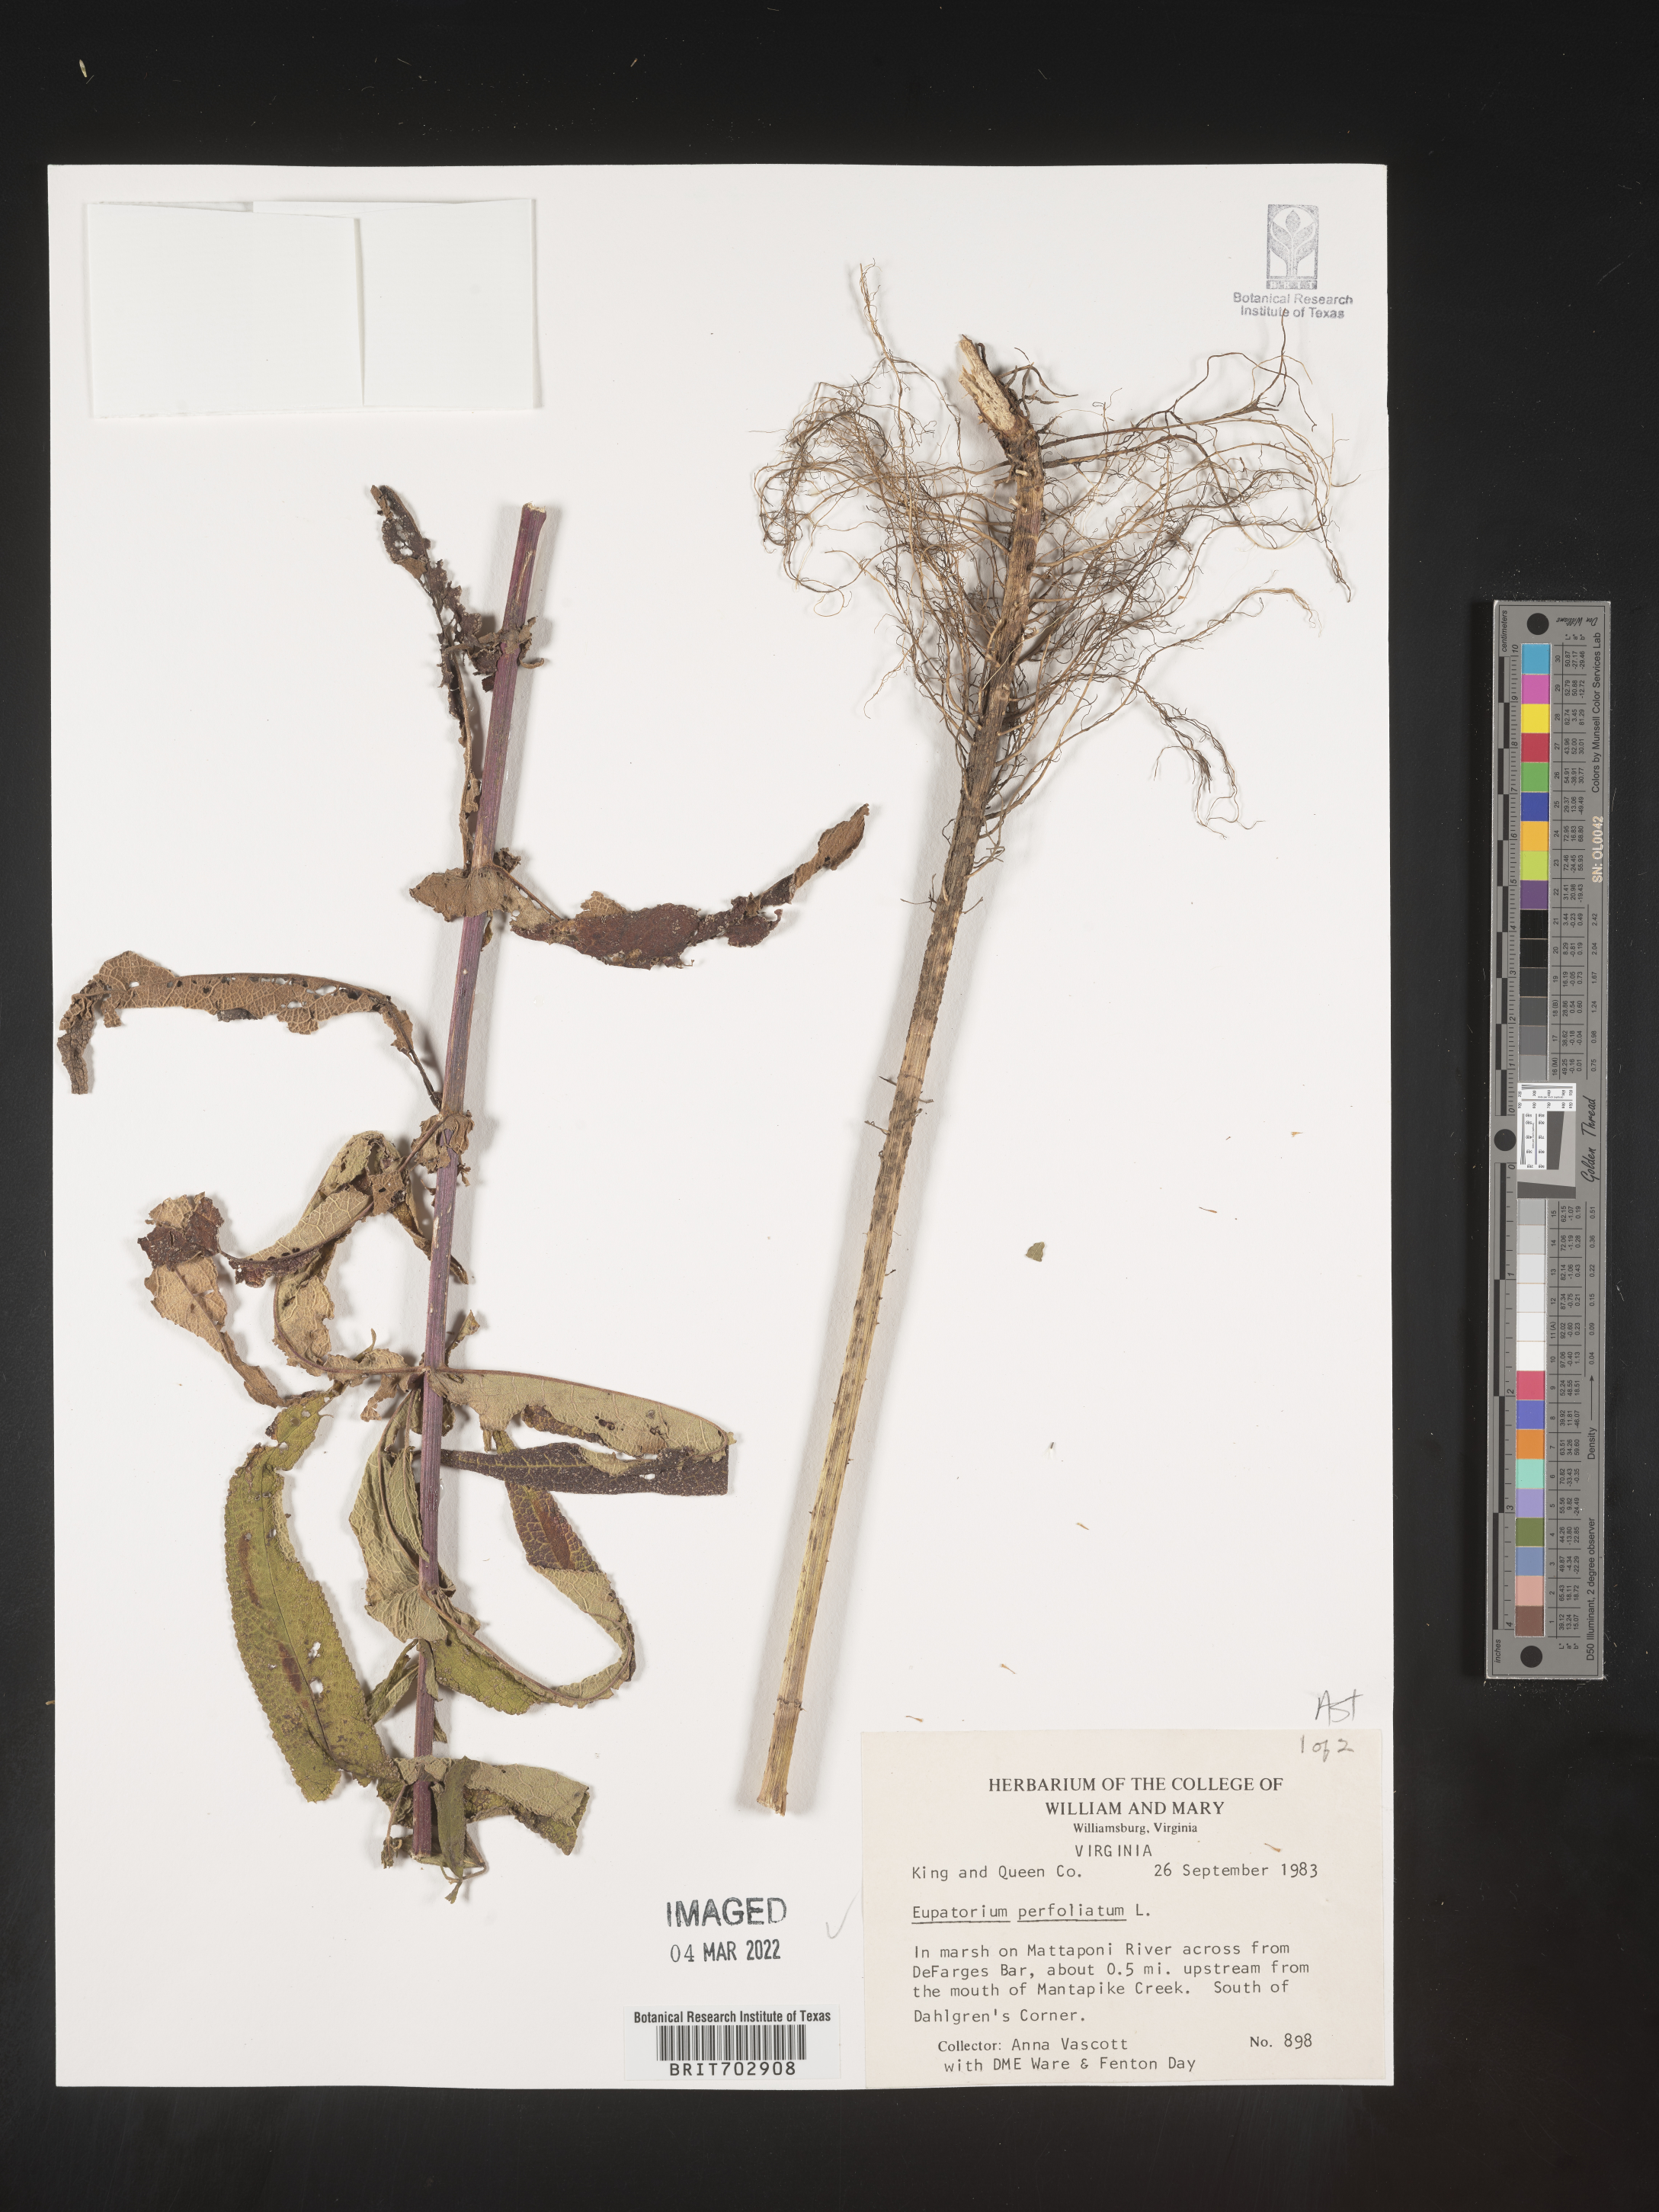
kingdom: Plantae
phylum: Tracheophyta
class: Magnoliopsida
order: Asterales
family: Asteraceae
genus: Eupatorium
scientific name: Eupatorium
